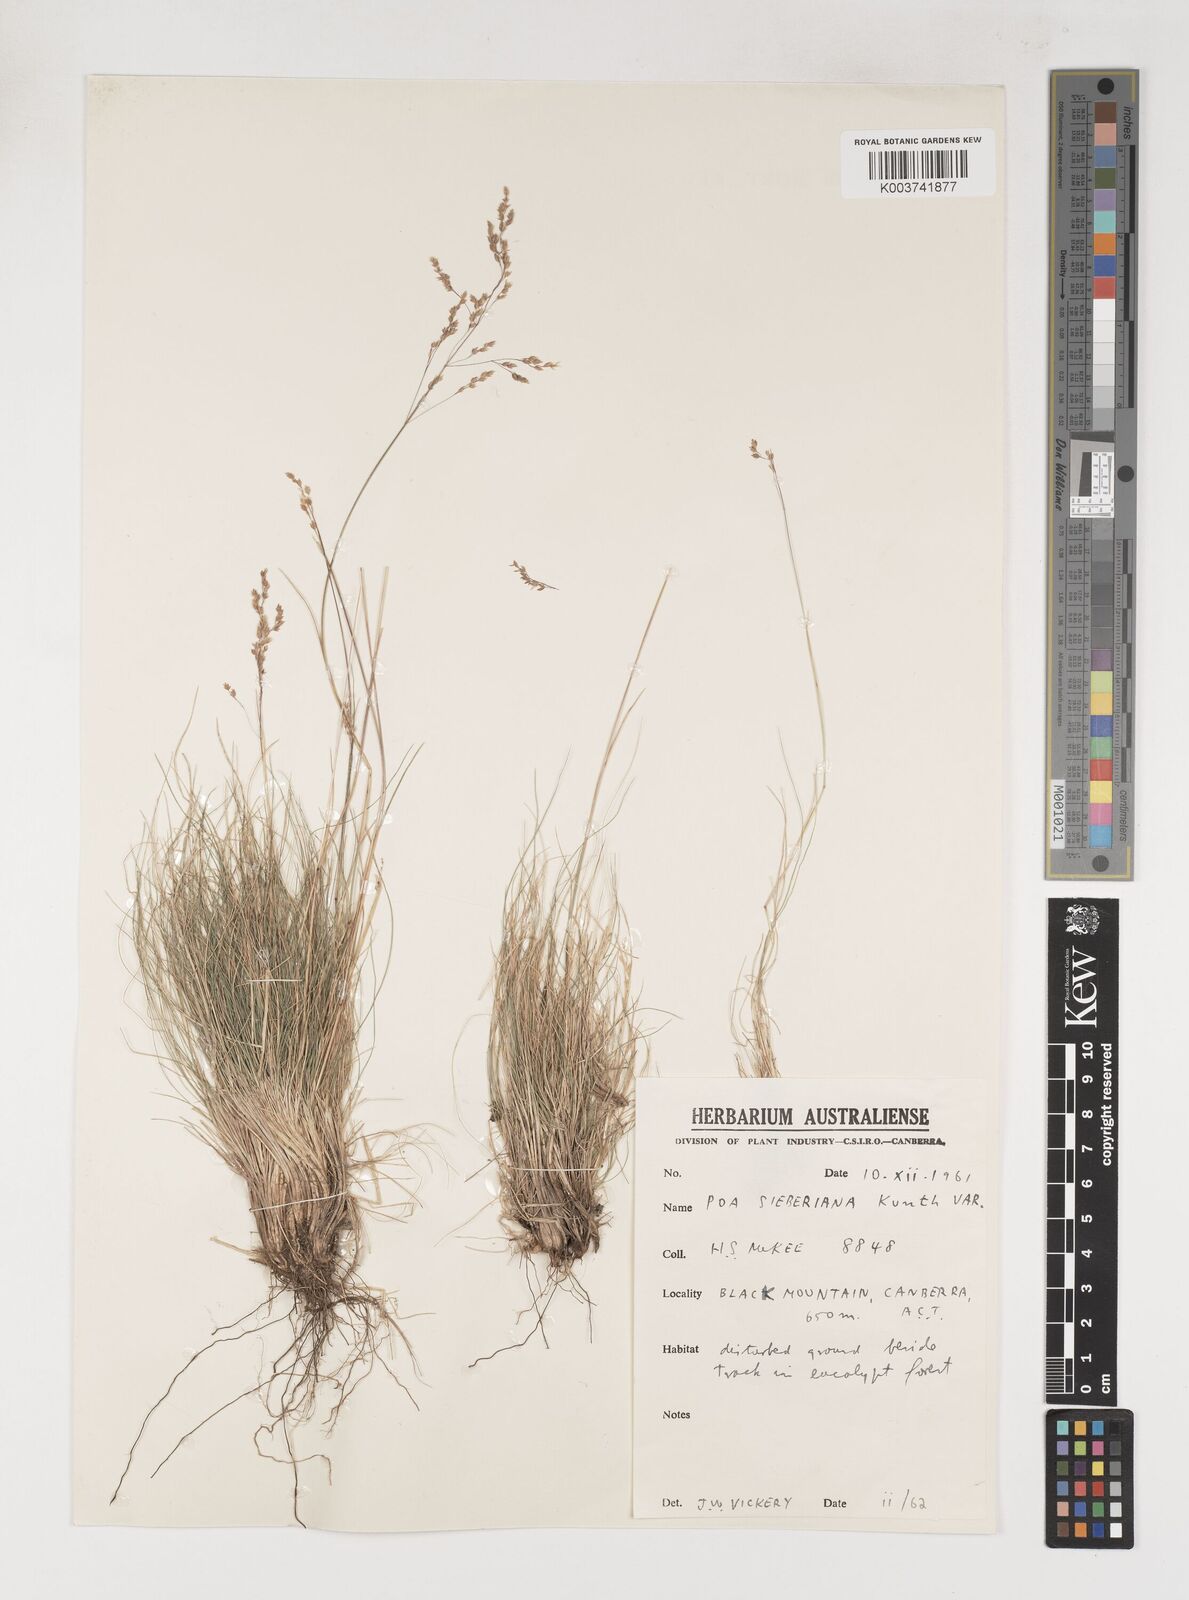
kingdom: Plantae
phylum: Tracheophyta
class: Liliopsida
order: Poales
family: Poaceae
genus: Poa
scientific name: Poa sieberiana
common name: Tussock poa
